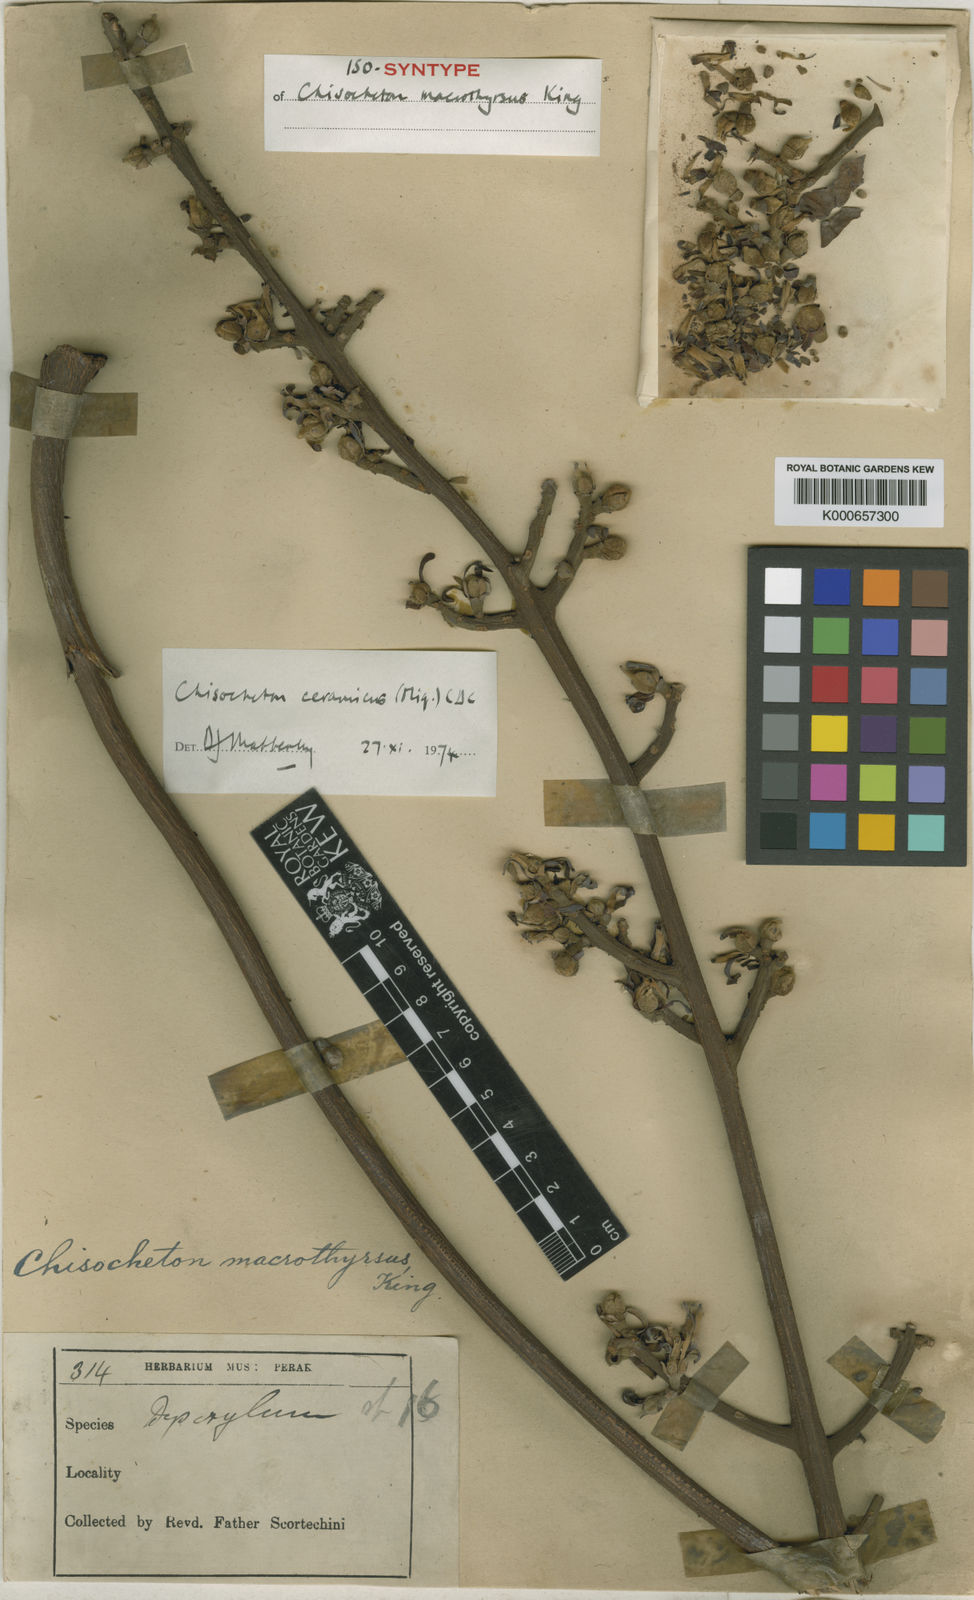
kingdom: Plantae
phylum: Tracheophyta
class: Magnoliopsida
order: Sapindales
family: Meliaceae
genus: Chisocheton
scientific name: Chisocheton ceramicus
